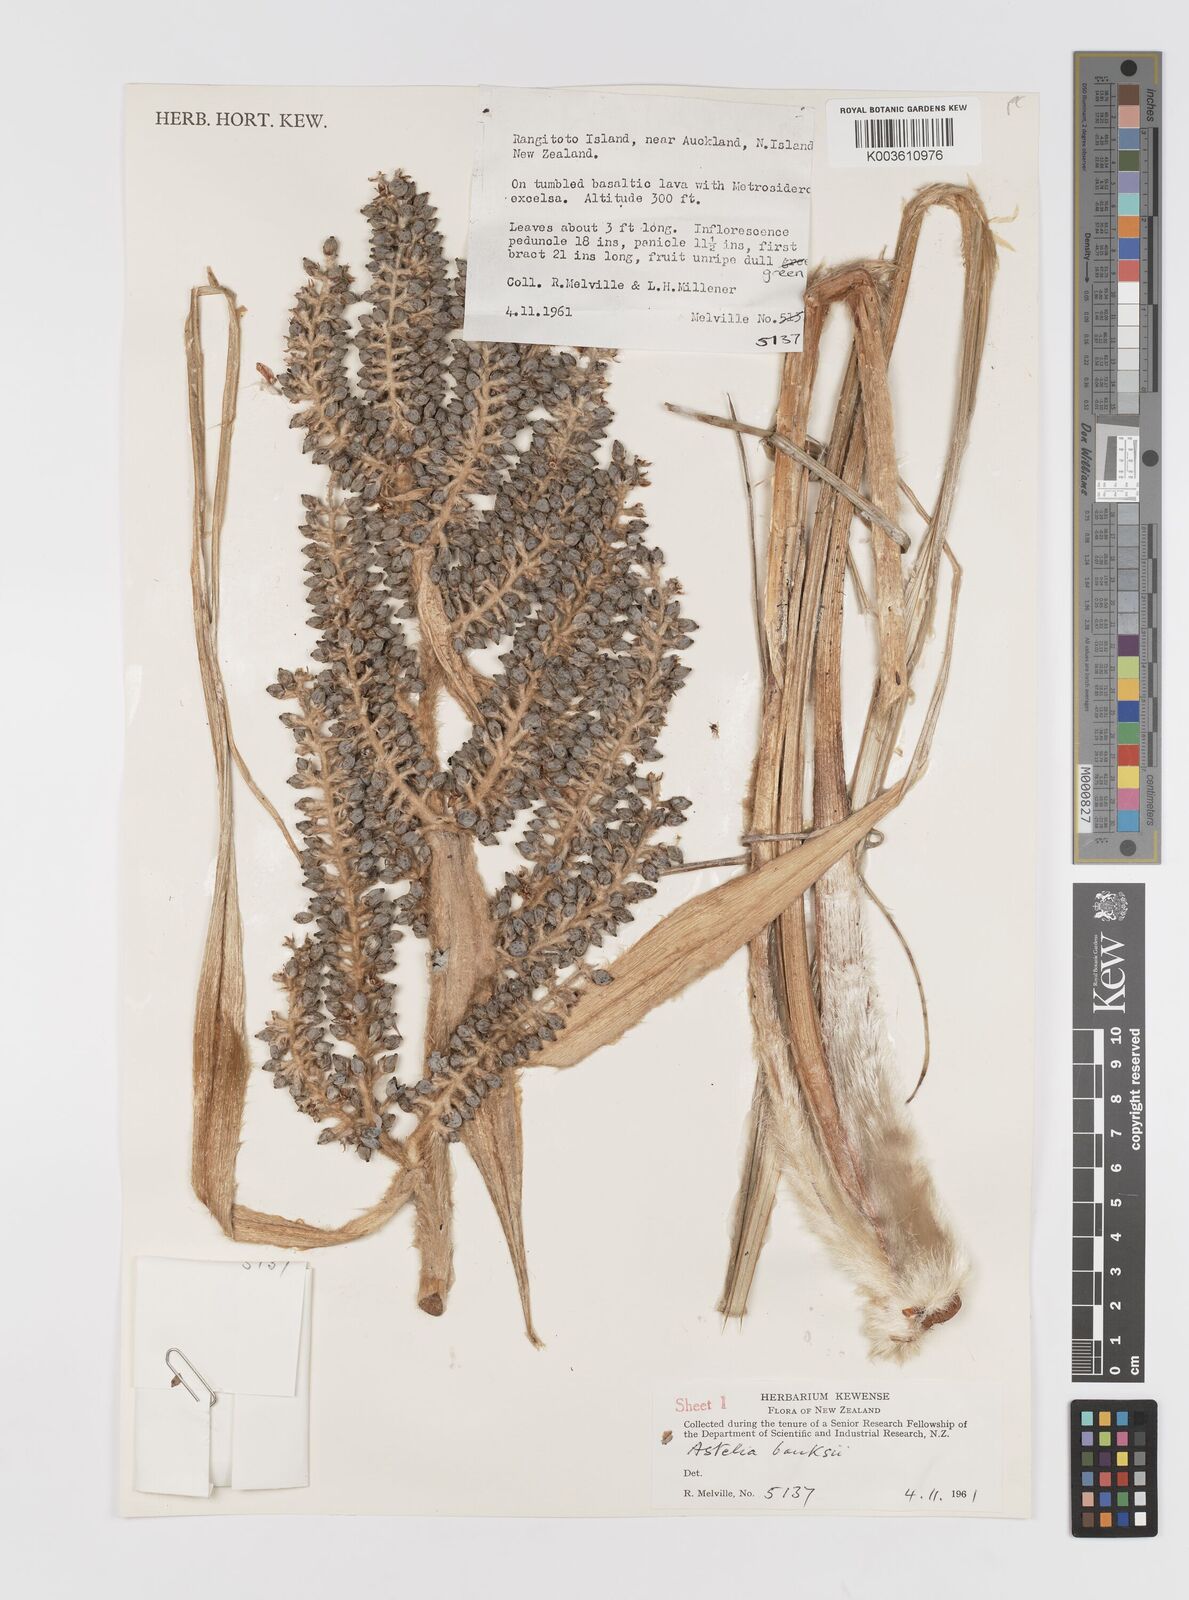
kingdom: Plantae
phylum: Tracheophyta
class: Liliopsida
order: Asparagales
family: Asteliaceae
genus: Astelia
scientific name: Astelia banksii
